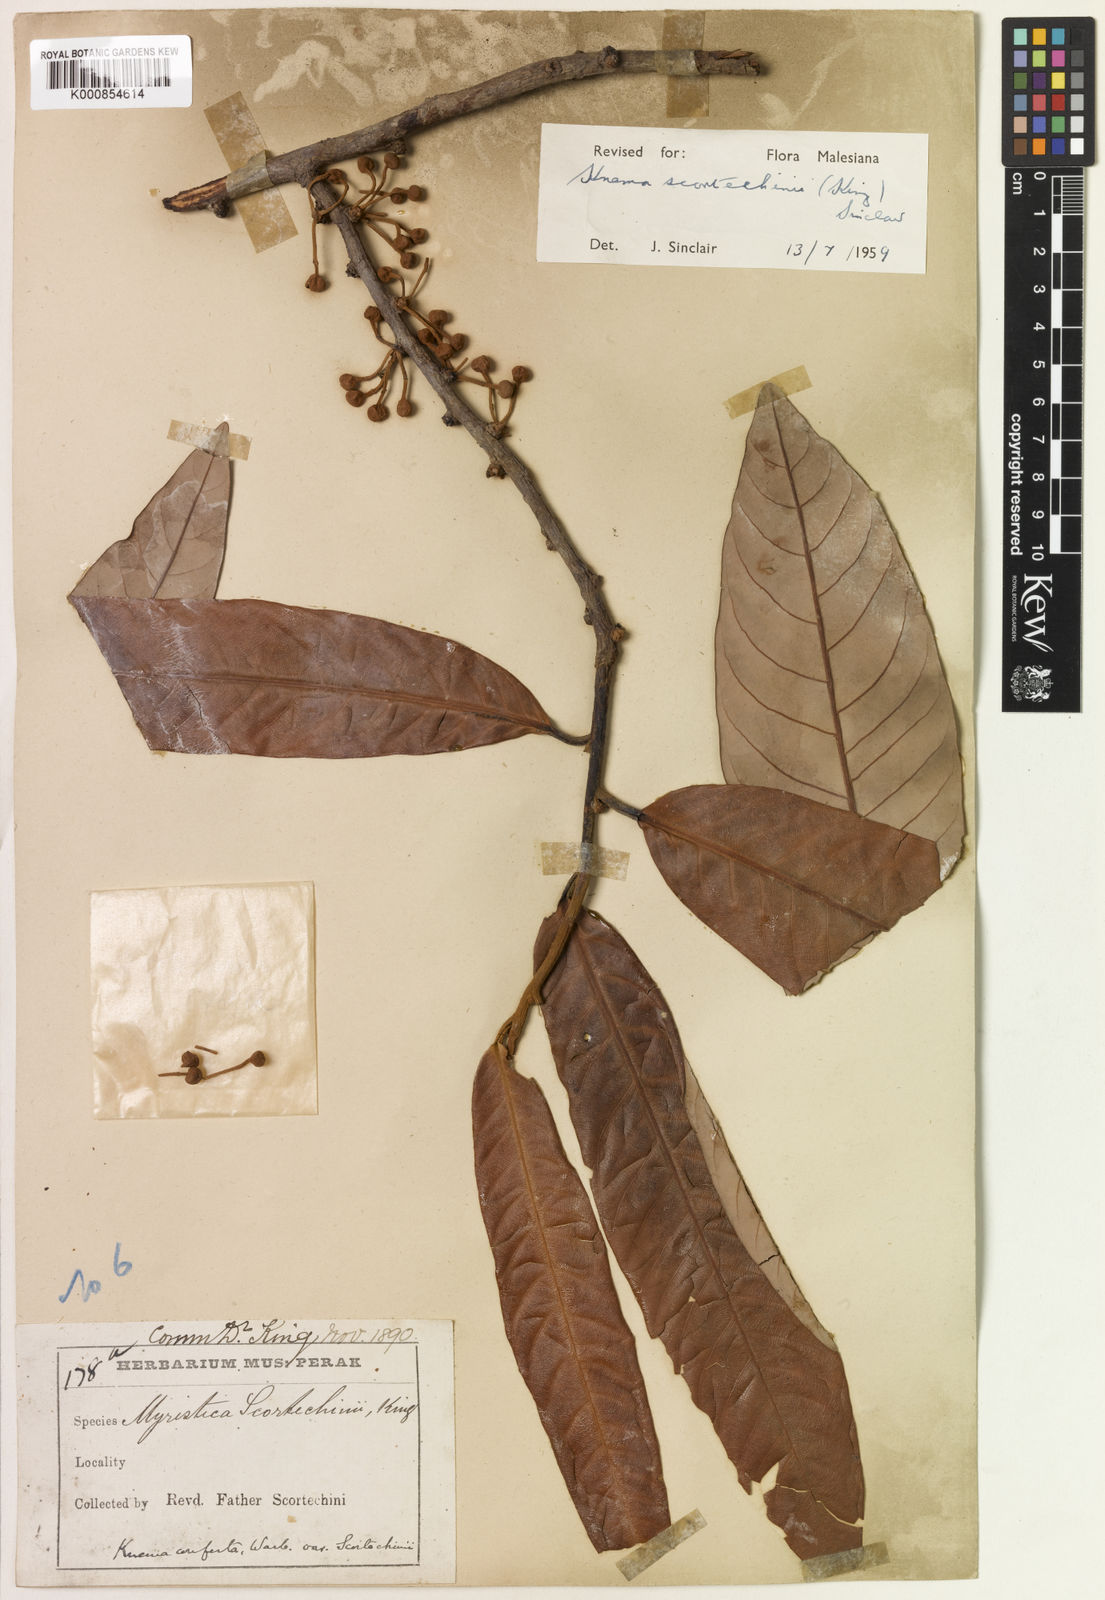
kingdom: Plantae
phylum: Tracheophyta
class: Magnoliopsida
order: Magnoliales
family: Myristicaceae
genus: Knema
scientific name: Knema scortechinii
